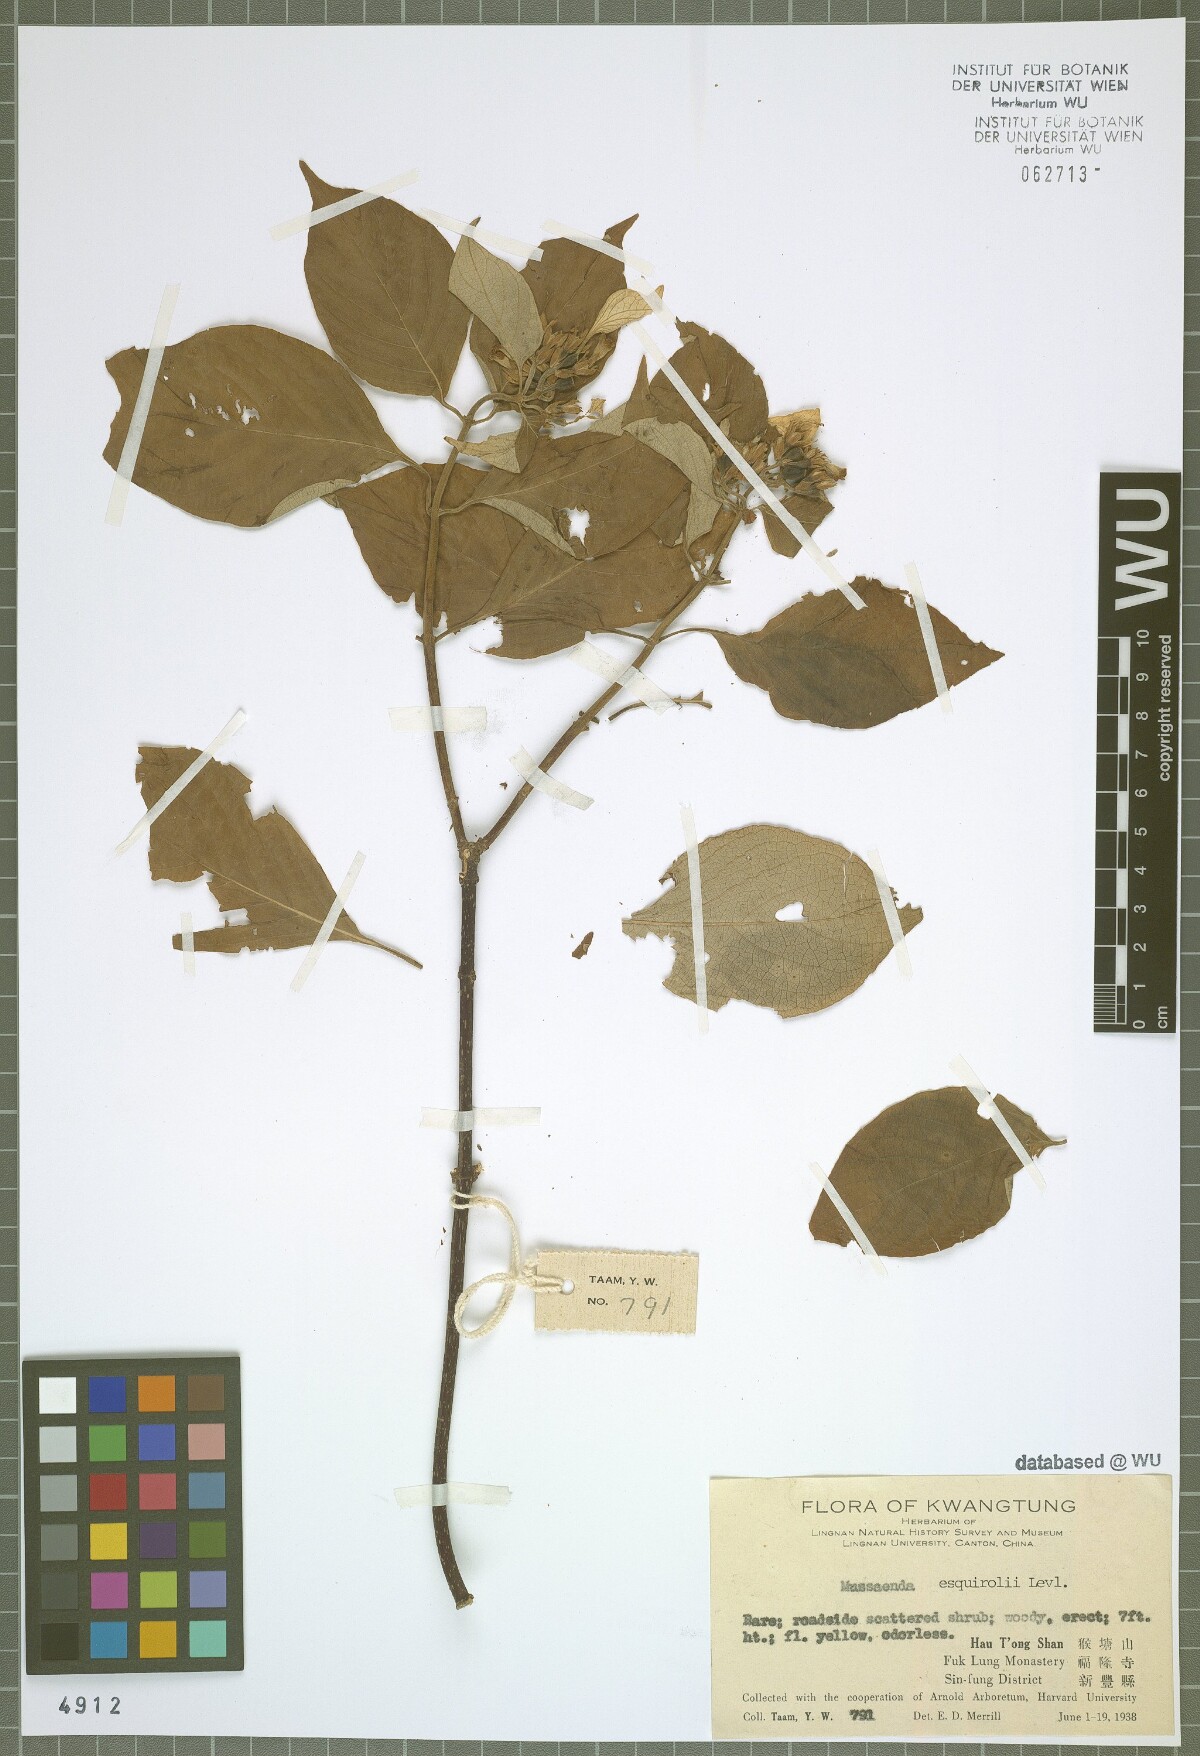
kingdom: Plantae
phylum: Tracheophyta
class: Magnoliopsida
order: Gentianales
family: Rubiaceae
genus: Mussaenda
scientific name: Mussaenda shikokiana
